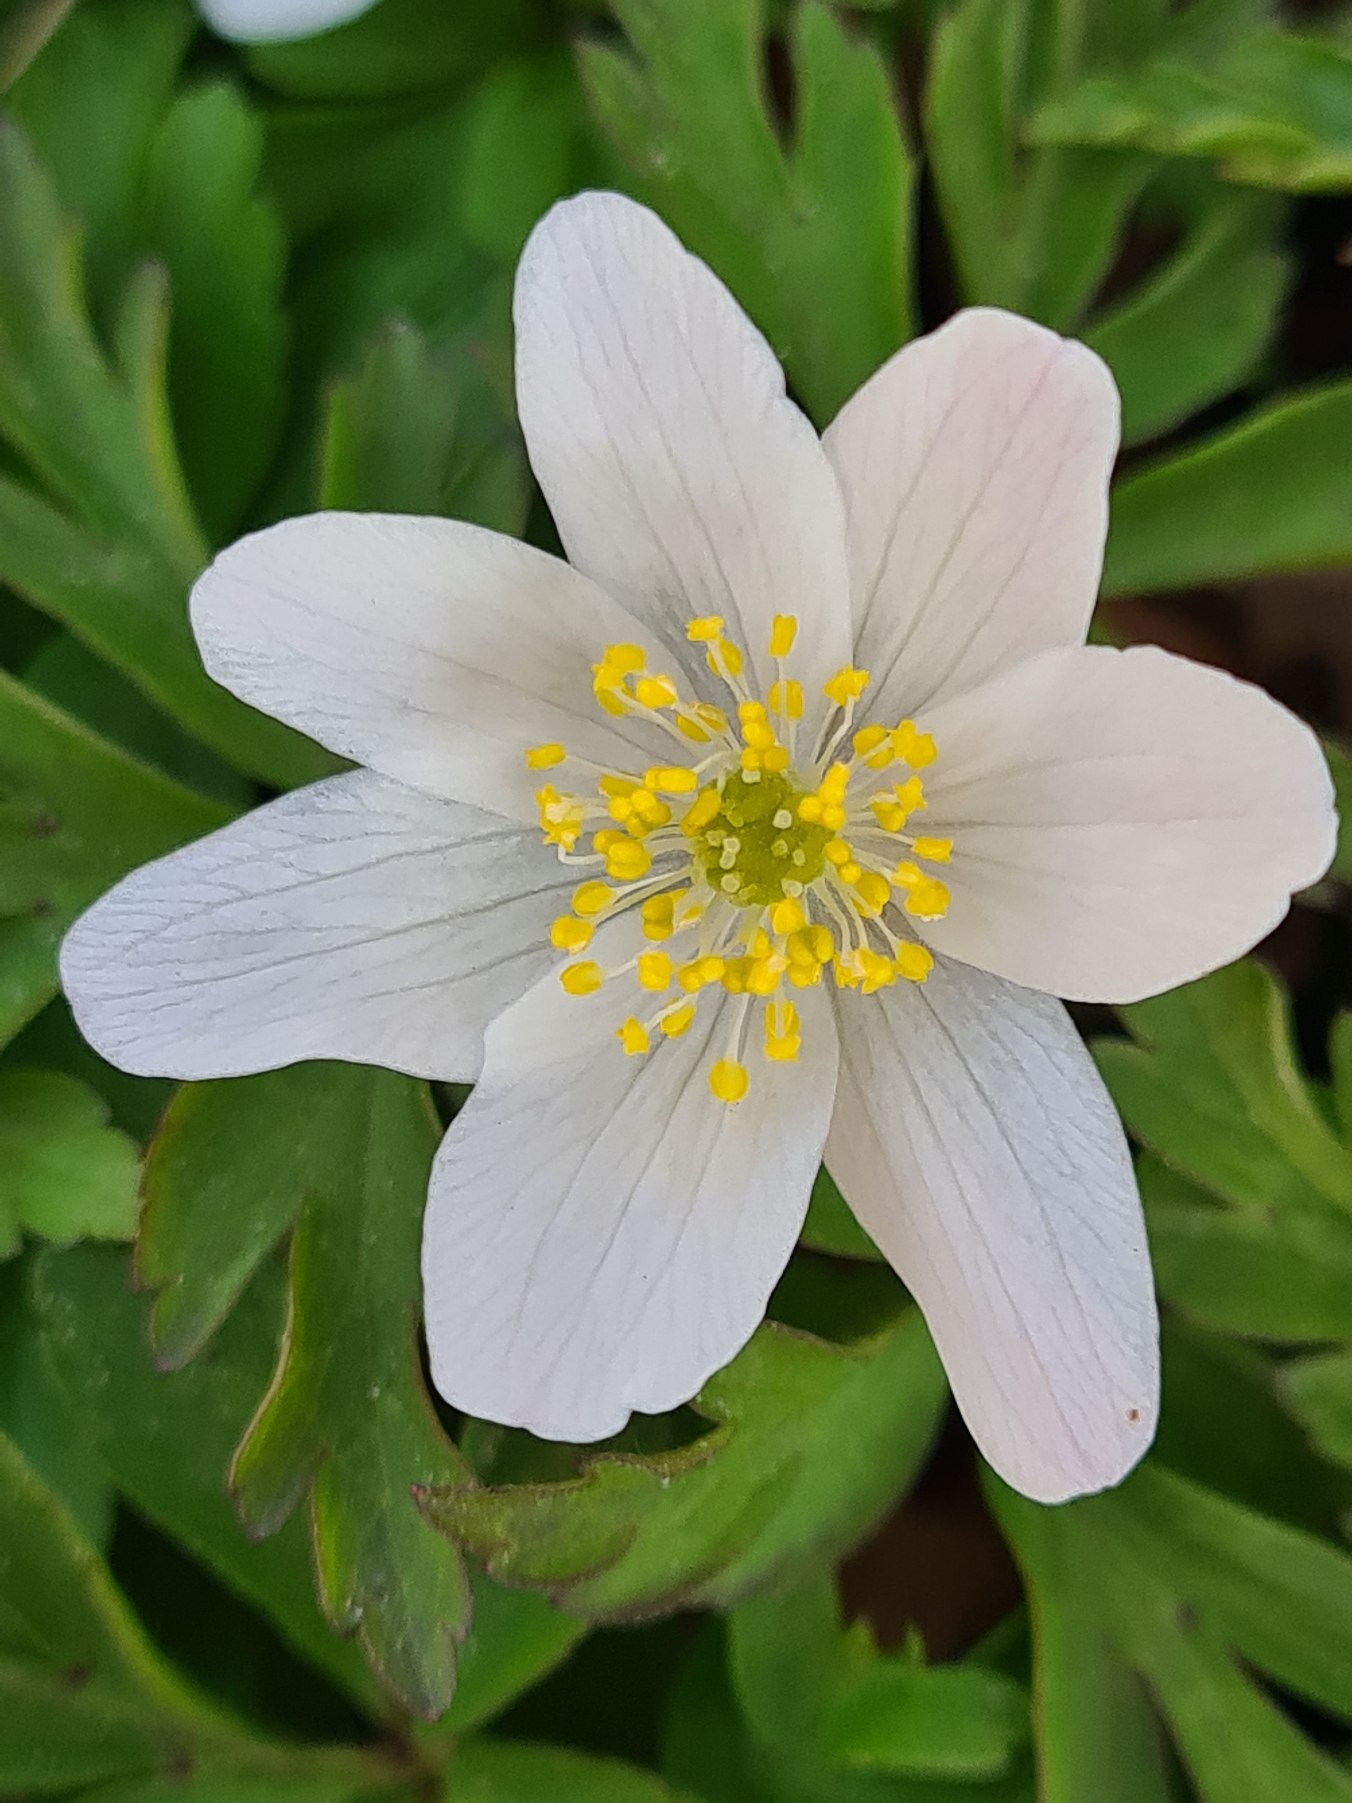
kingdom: Plantae
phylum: Tracheophyta
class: Magnoliopsida
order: Ranunculales
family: Ranunculaceae
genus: Anemone
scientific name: Anemone nemorosa
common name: Hvid anemone
